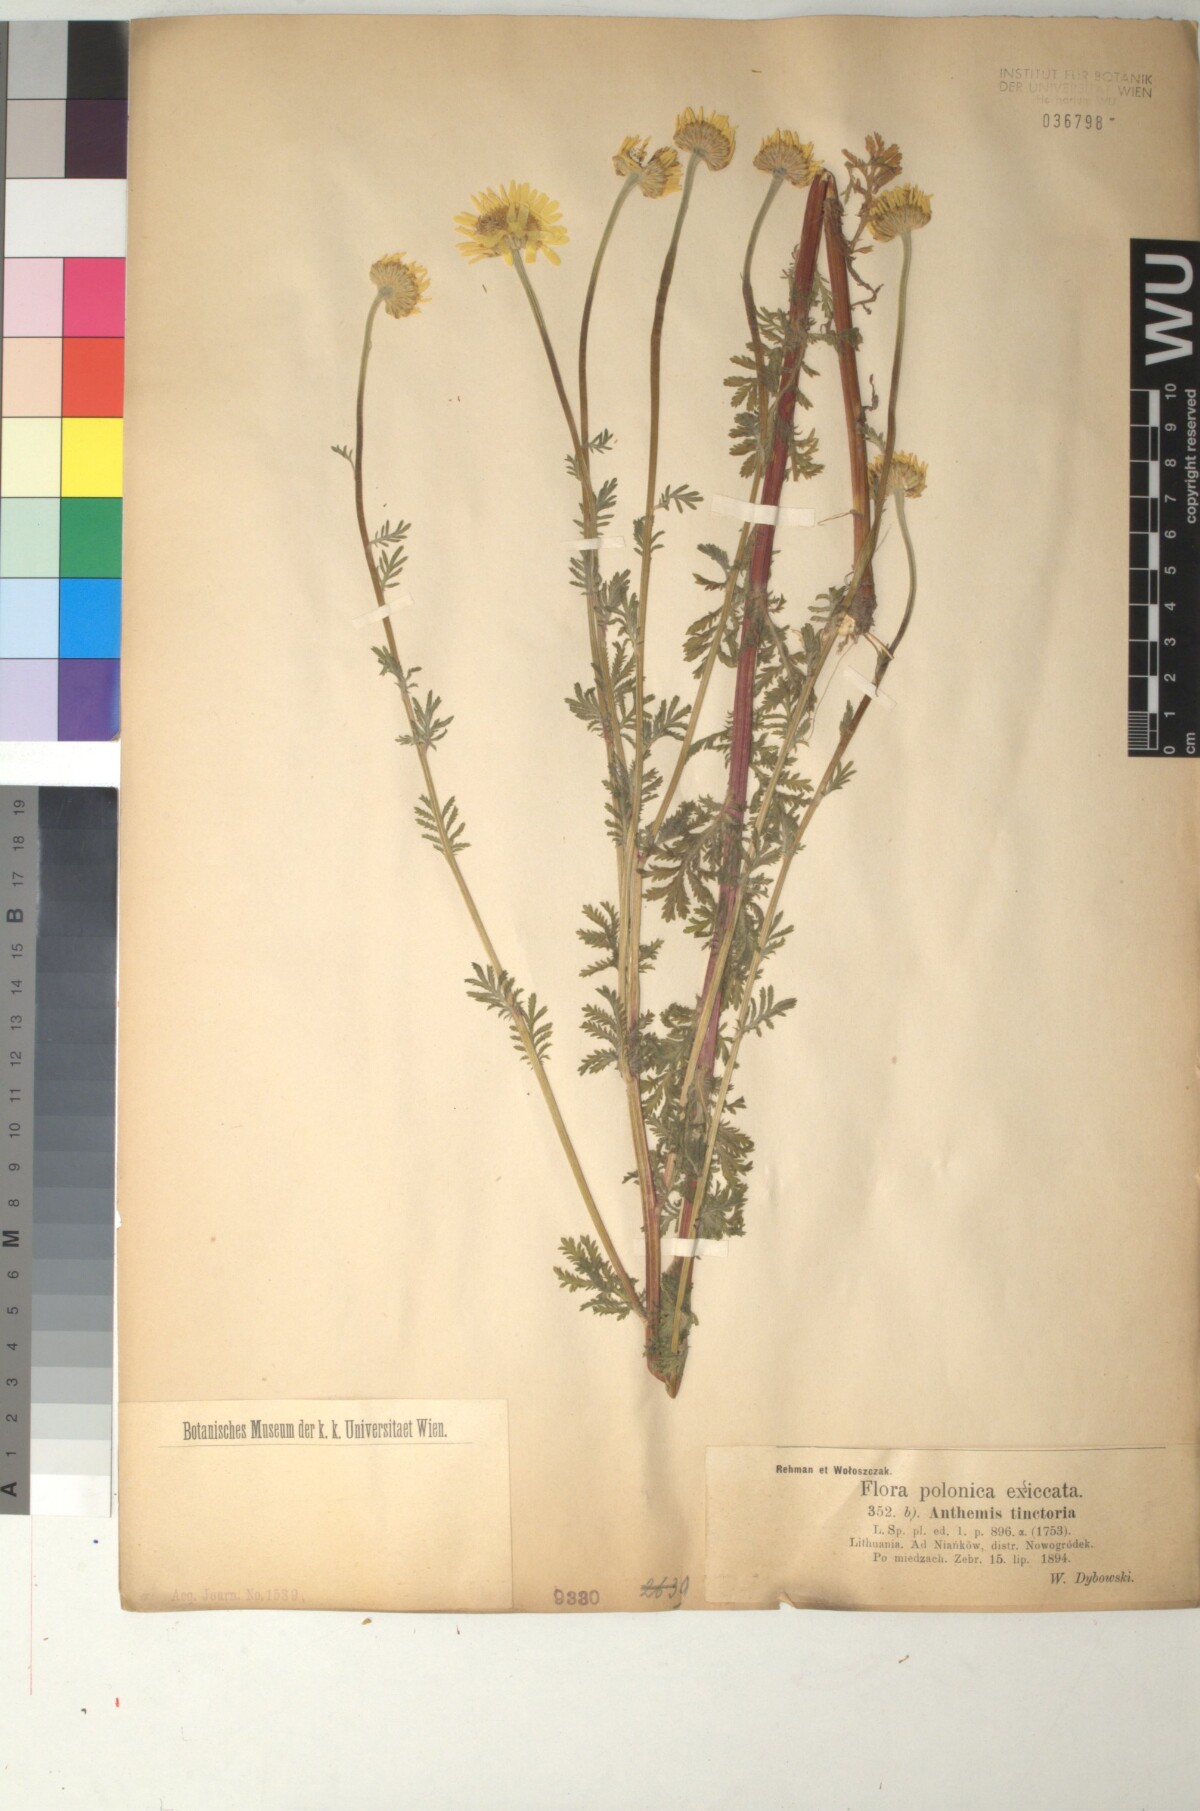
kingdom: Plantae
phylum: Tracheophyta
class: Magnoliopsida
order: Asterales
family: Asteraceae
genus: Cota
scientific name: Cota tinctoria
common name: Golden chamomile
